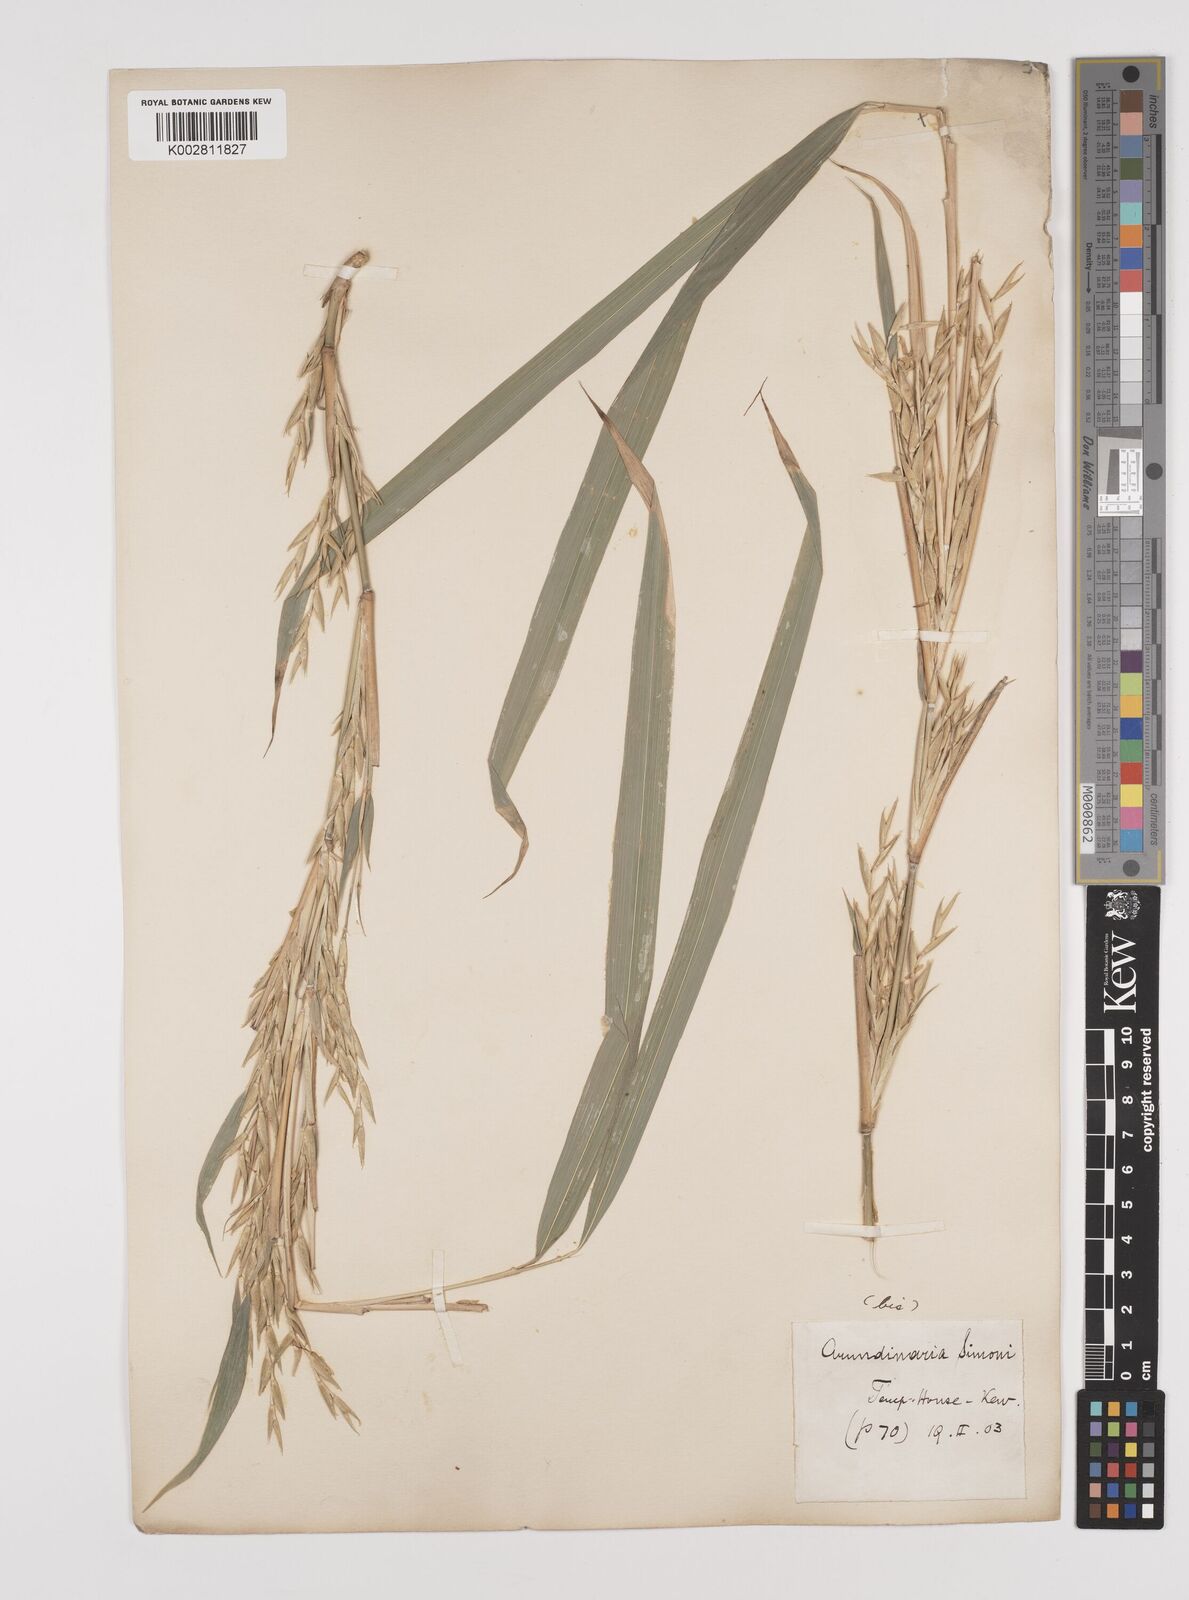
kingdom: Plantae
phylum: Tracheophyta
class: Liliopsida
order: Poales
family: Poaceae
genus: Pleioblastus
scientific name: Pleioblastus simonii
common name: Simon bamboo
